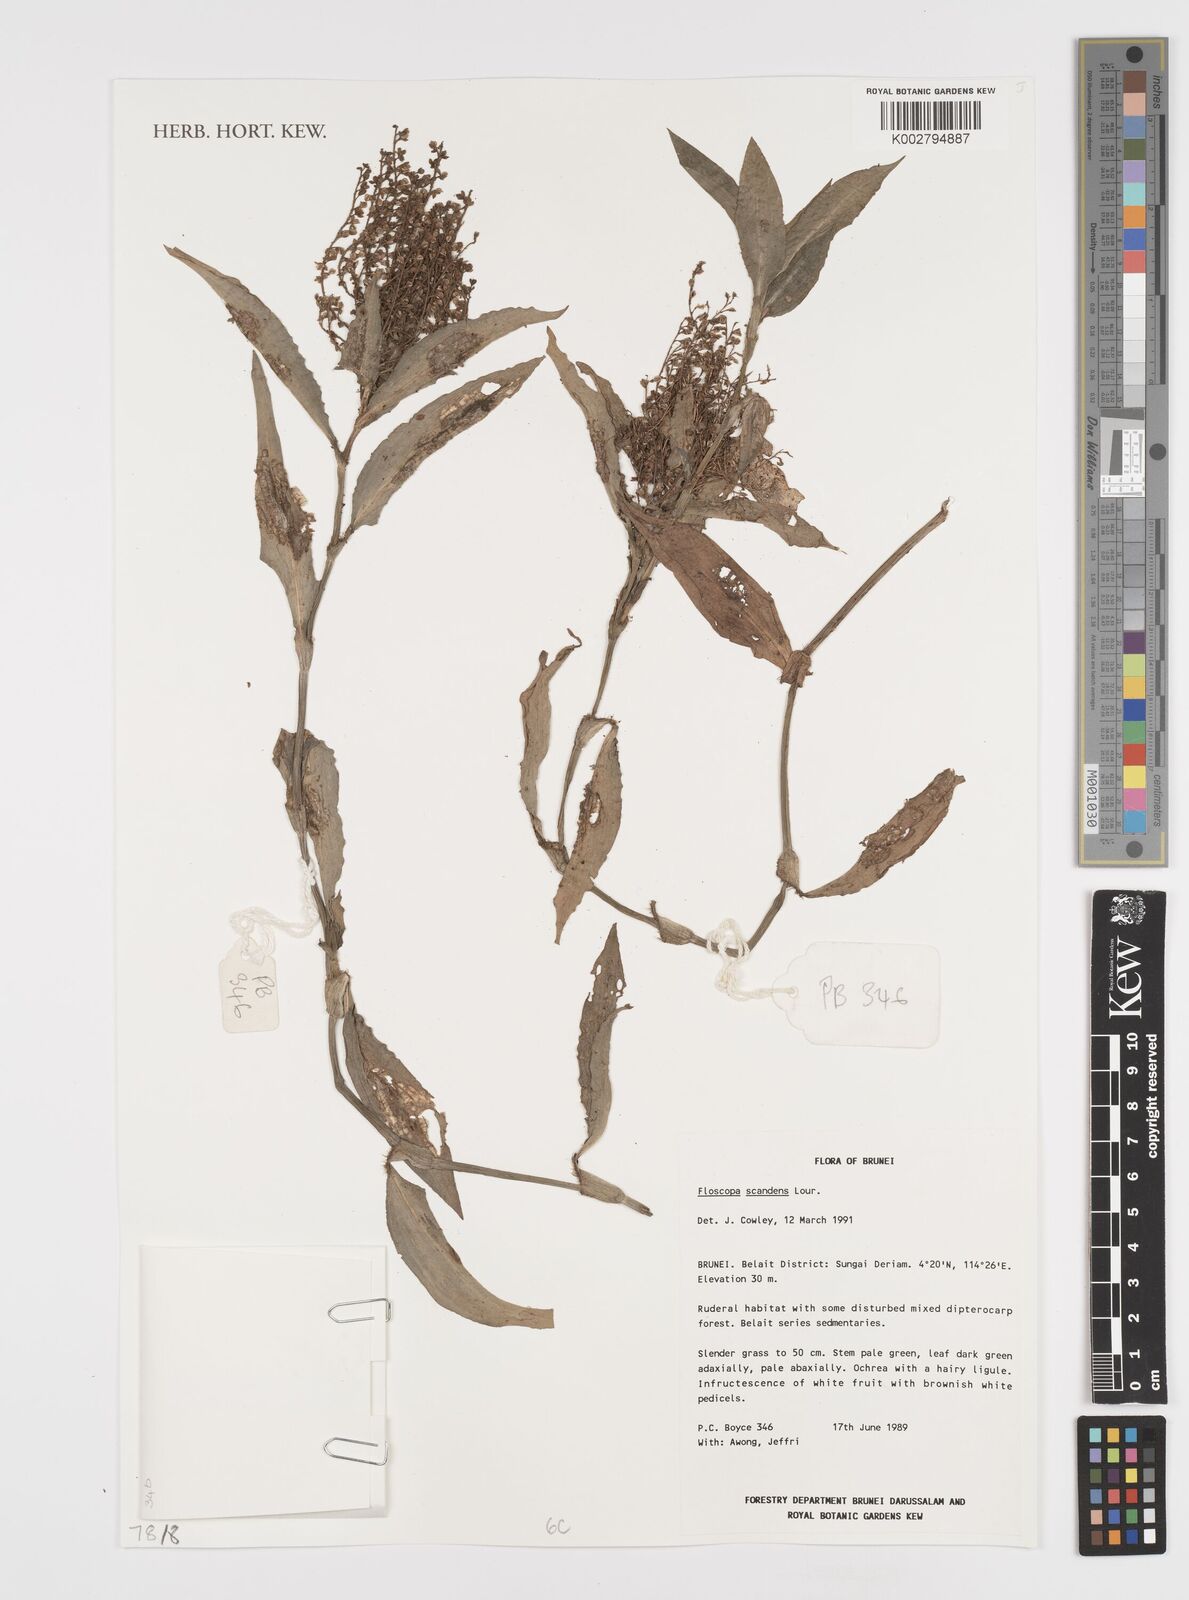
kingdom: Plantae
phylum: Tracheophyta
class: Liliopsida
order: Commelinales
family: Commelinaceae
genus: Floscopa
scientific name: Floscopa scandens
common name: Climbing flower cup
